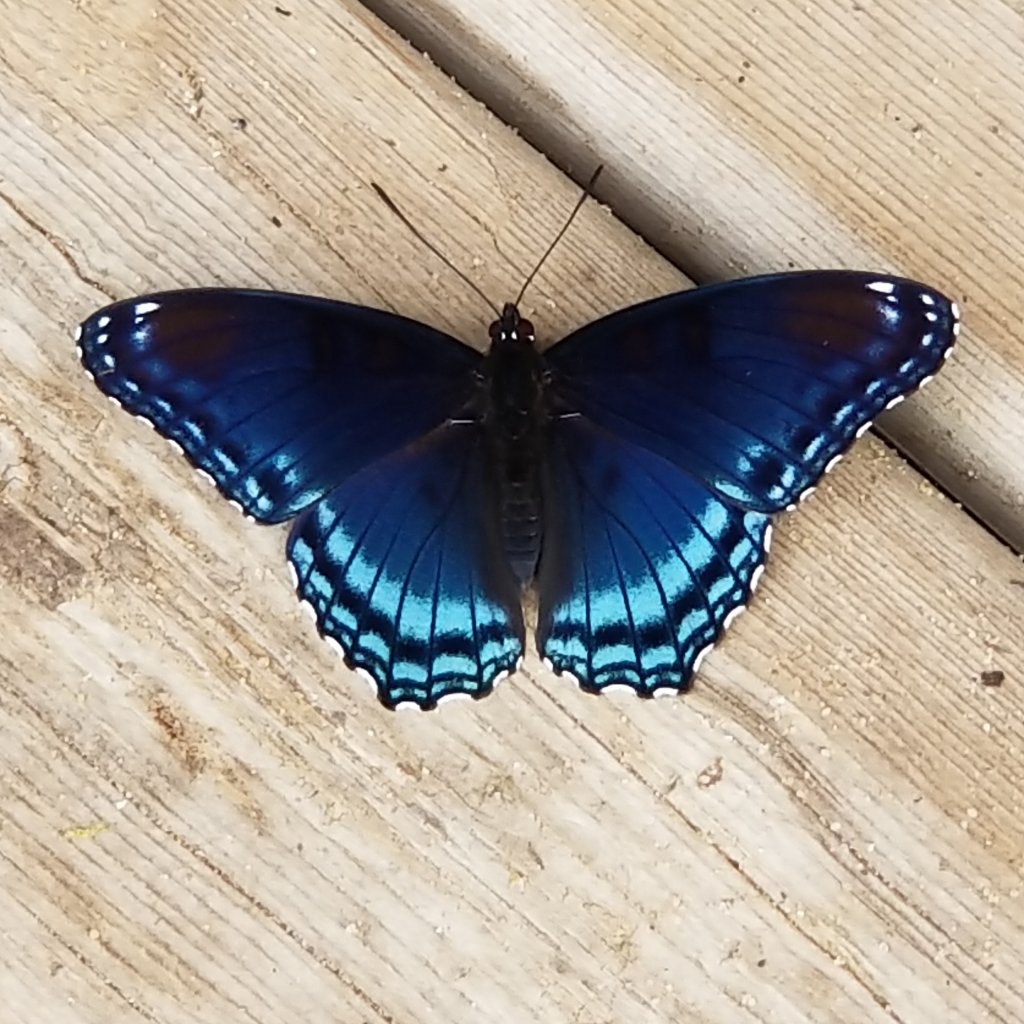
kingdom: Animalia
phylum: Arthropoda
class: Insecta
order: Lepidoptera
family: Nymphalidae
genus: Limenitis
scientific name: Limenitis astyanax
